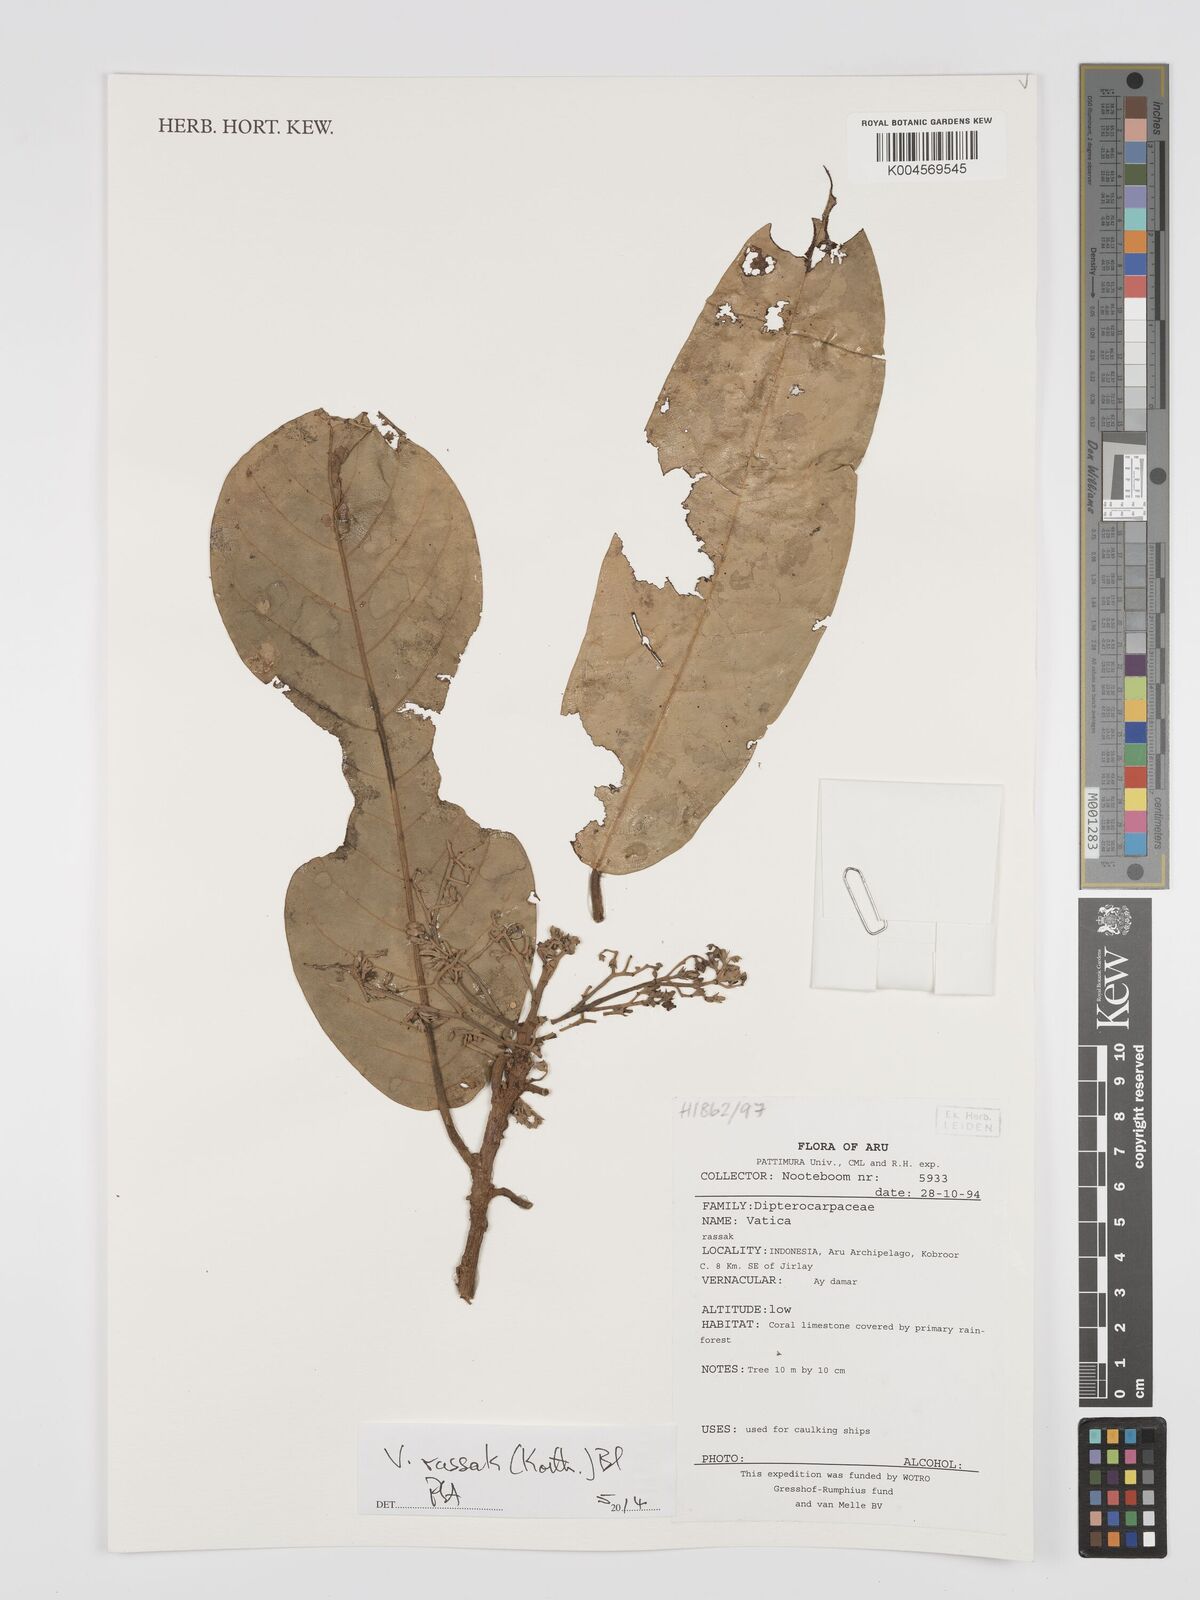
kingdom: Plantae
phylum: Tracheophyta
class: Magnoliopsida
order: Malvales
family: Dipterocarpaceae
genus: Vatica
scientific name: Vatica rassak
